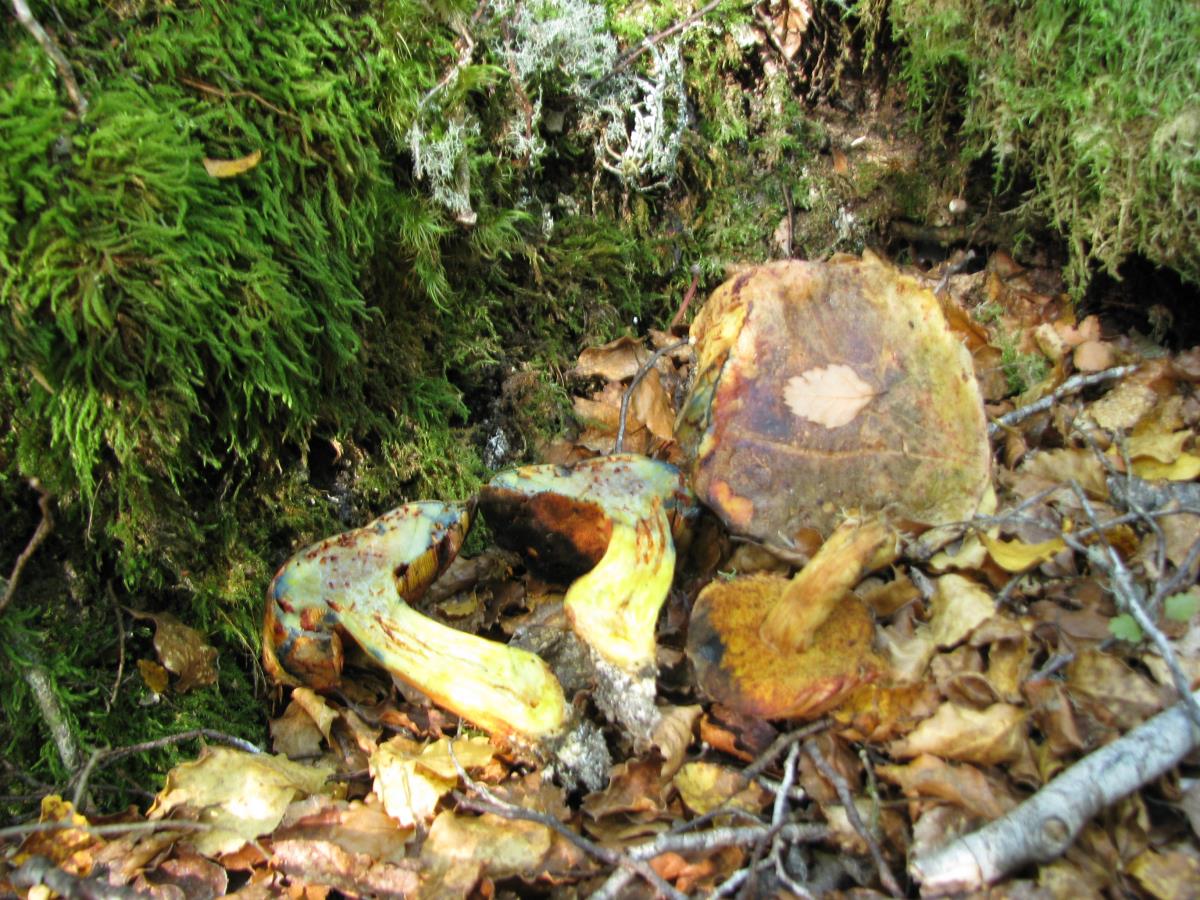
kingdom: Fungi
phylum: Basidiomycota
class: Agaricomycetes
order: Boletales
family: Boletaceae
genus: Xerocomus
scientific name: Xerocomus leptospermi
